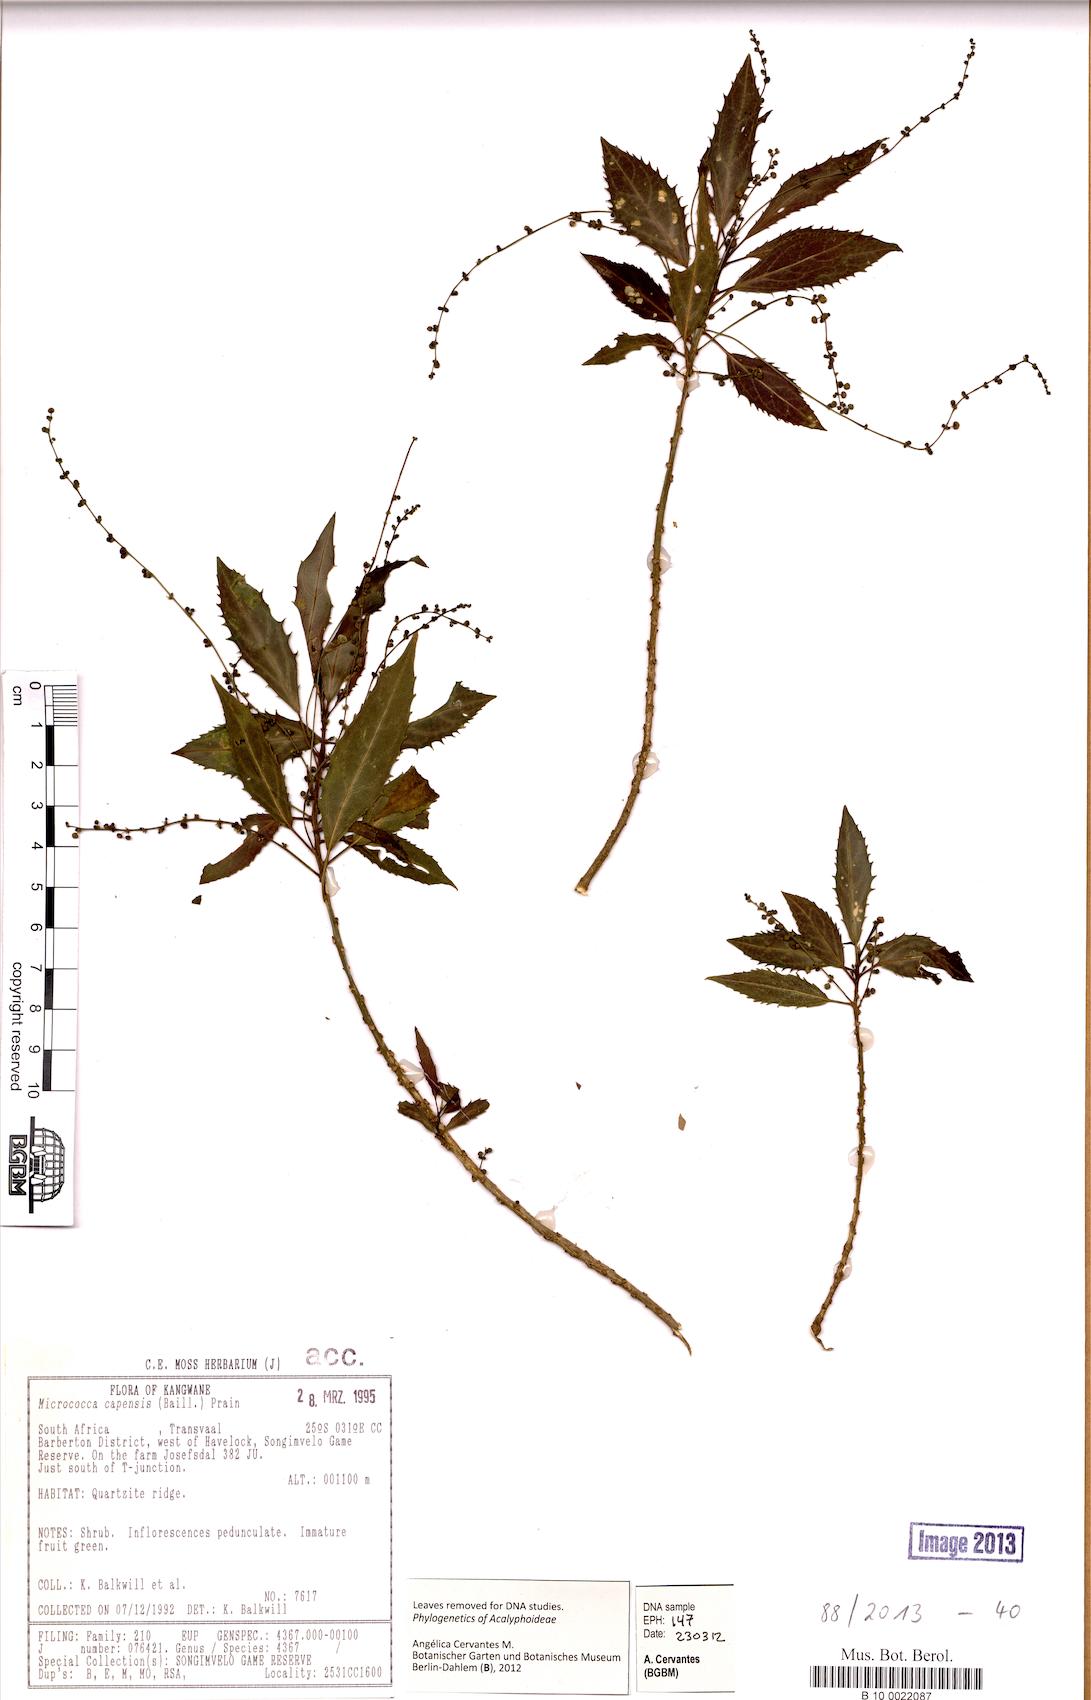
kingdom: Plantae
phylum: Tracheophyta
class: Magnoliopsida
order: Malpighiales
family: Euphorbiaceae
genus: Micrococca
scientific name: Micrococca capensis
